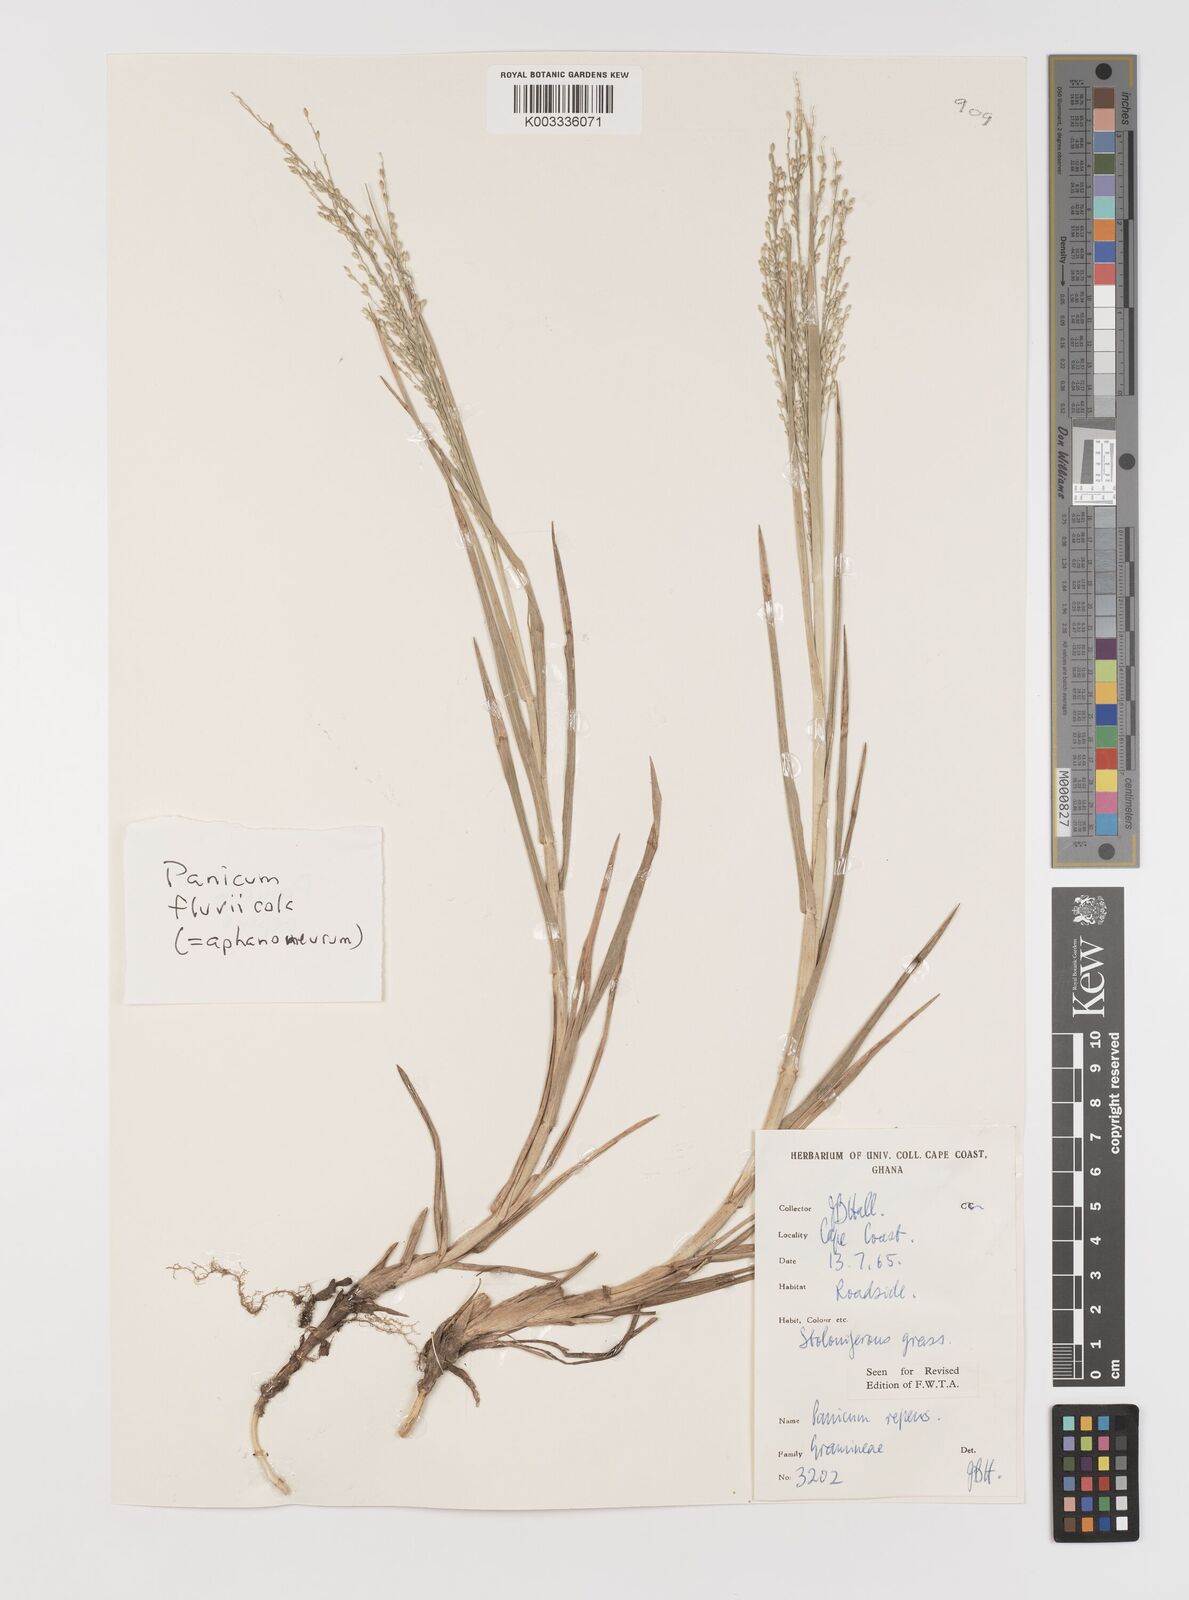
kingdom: Plantae
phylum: Tracheophyta
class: Liliopsida
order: Poales
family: Poaceae
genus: Panicum
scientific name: Panicum repens
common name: Torpedo grass
